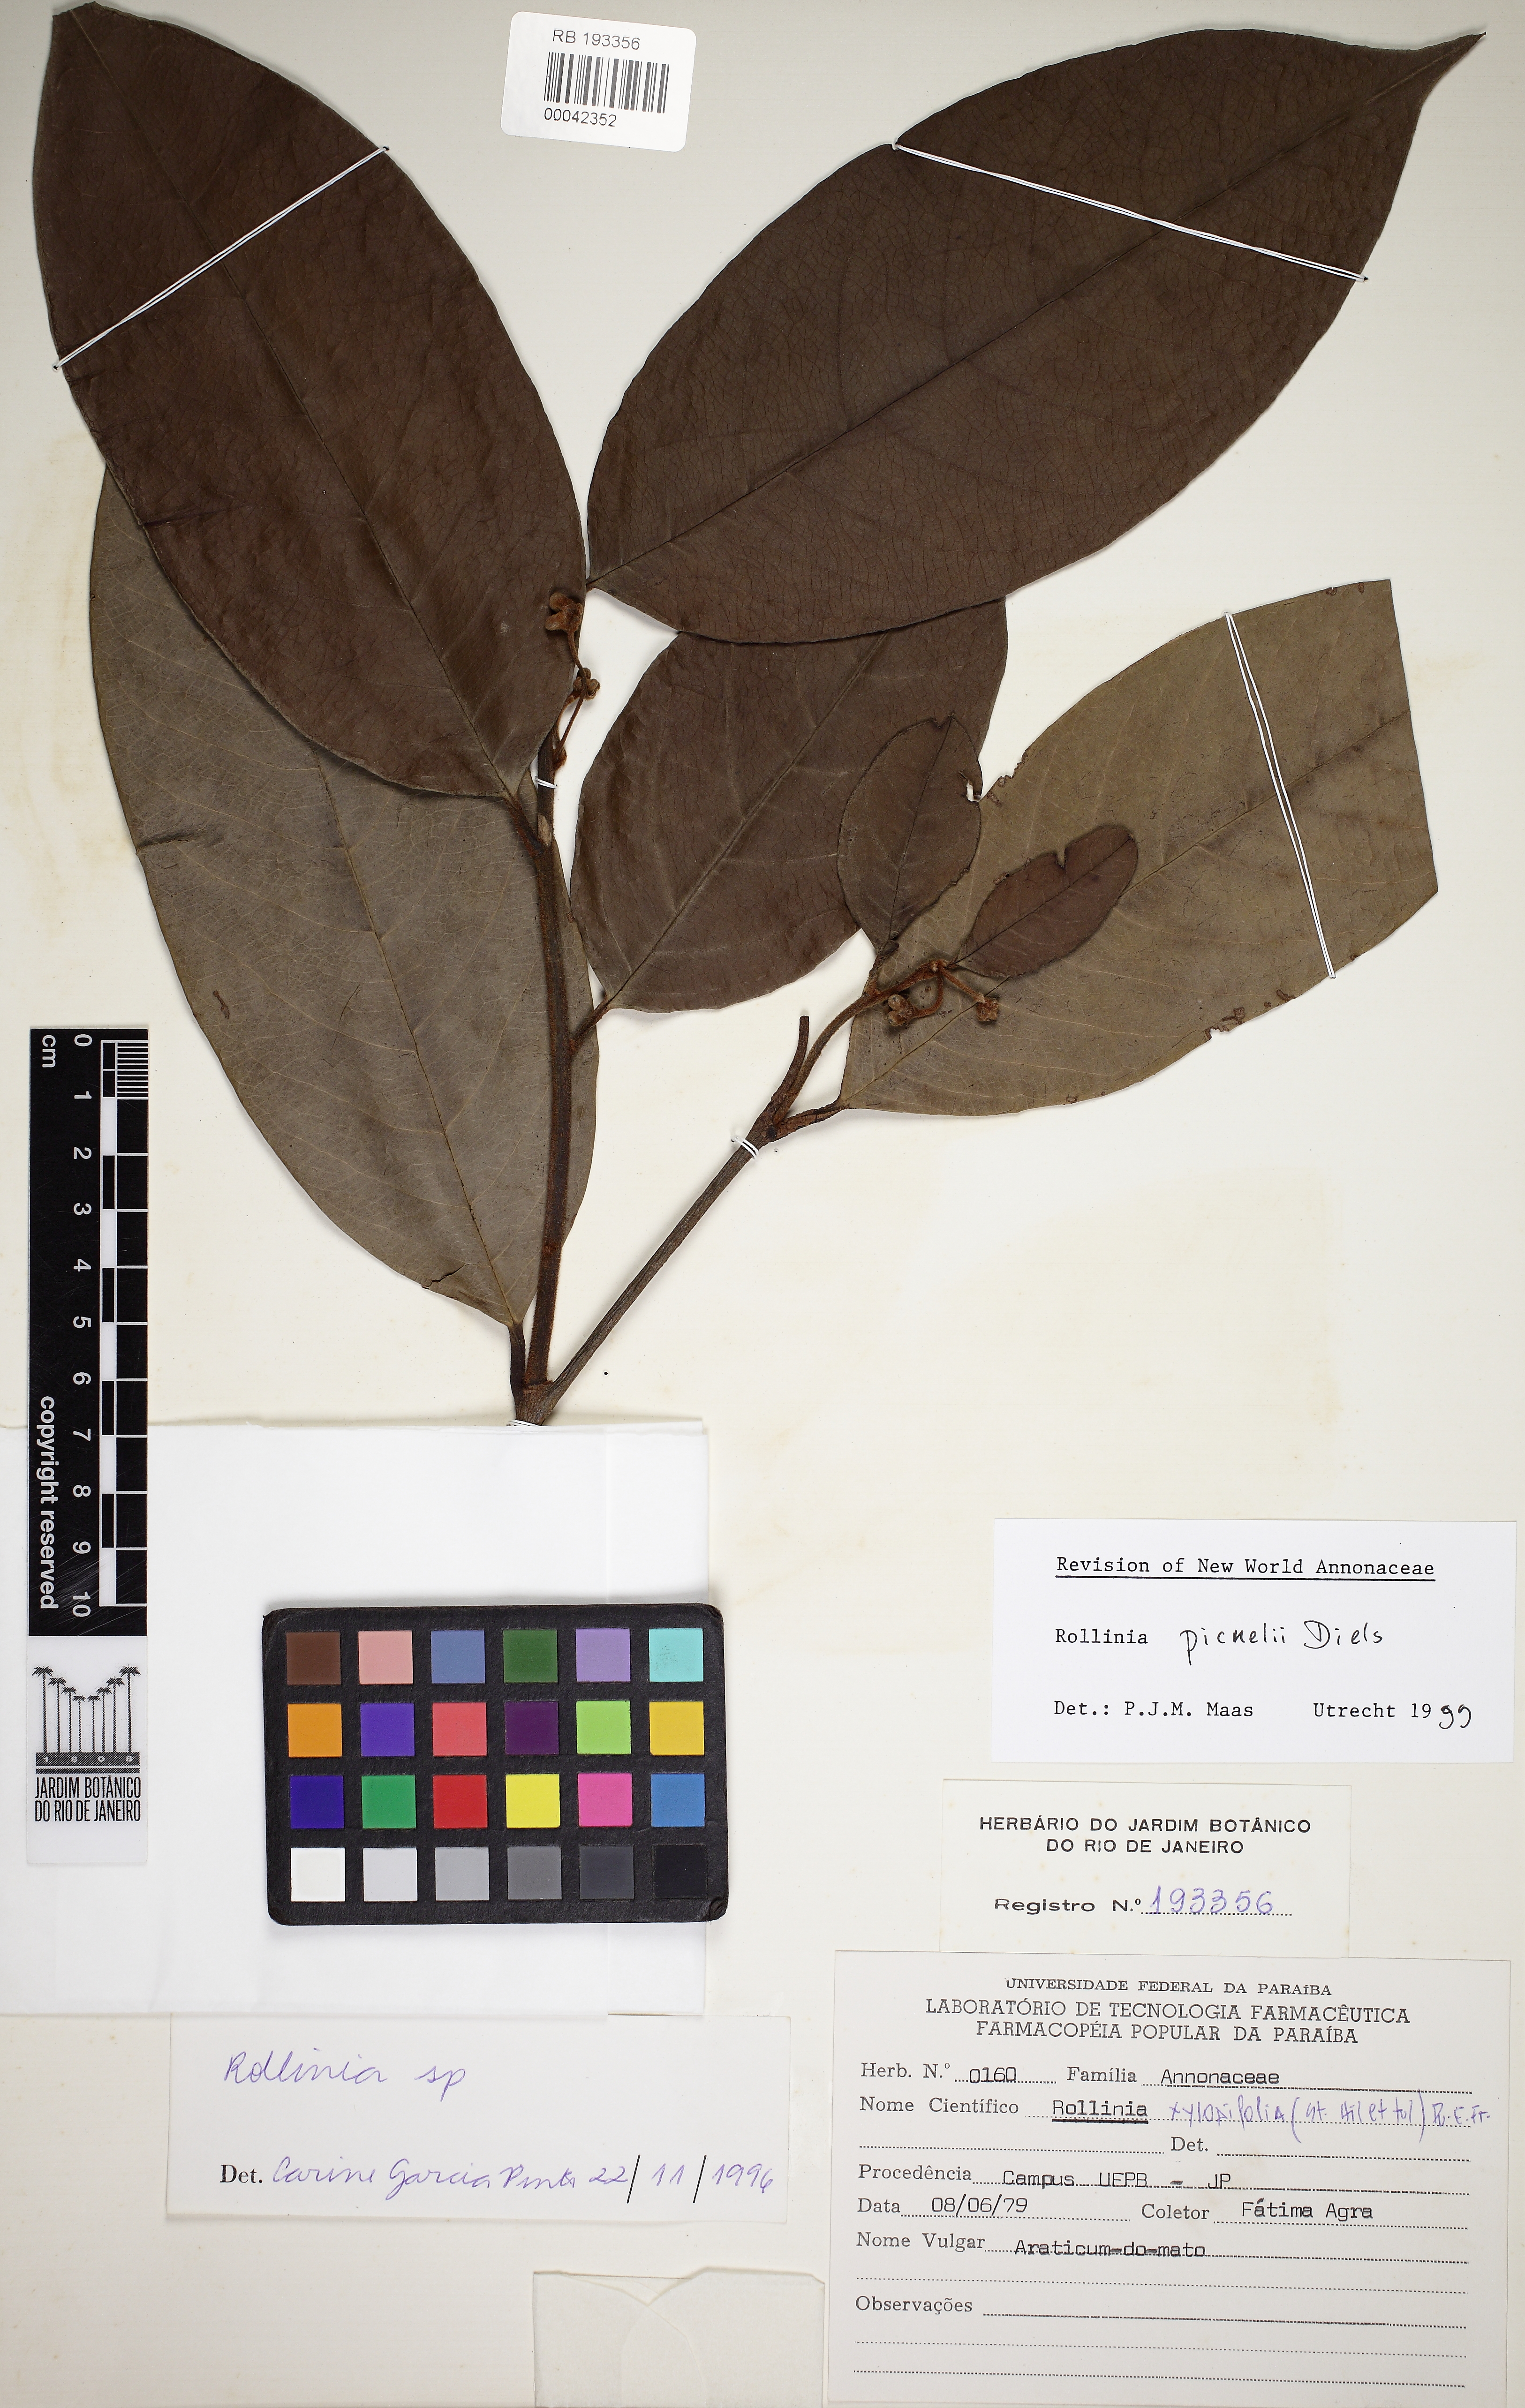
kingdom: Plantae
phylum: Tracheophyta
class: Magnoliopsida
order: Magnoliales
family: Annonaceae
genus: Annona
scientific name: Annona papilionella
